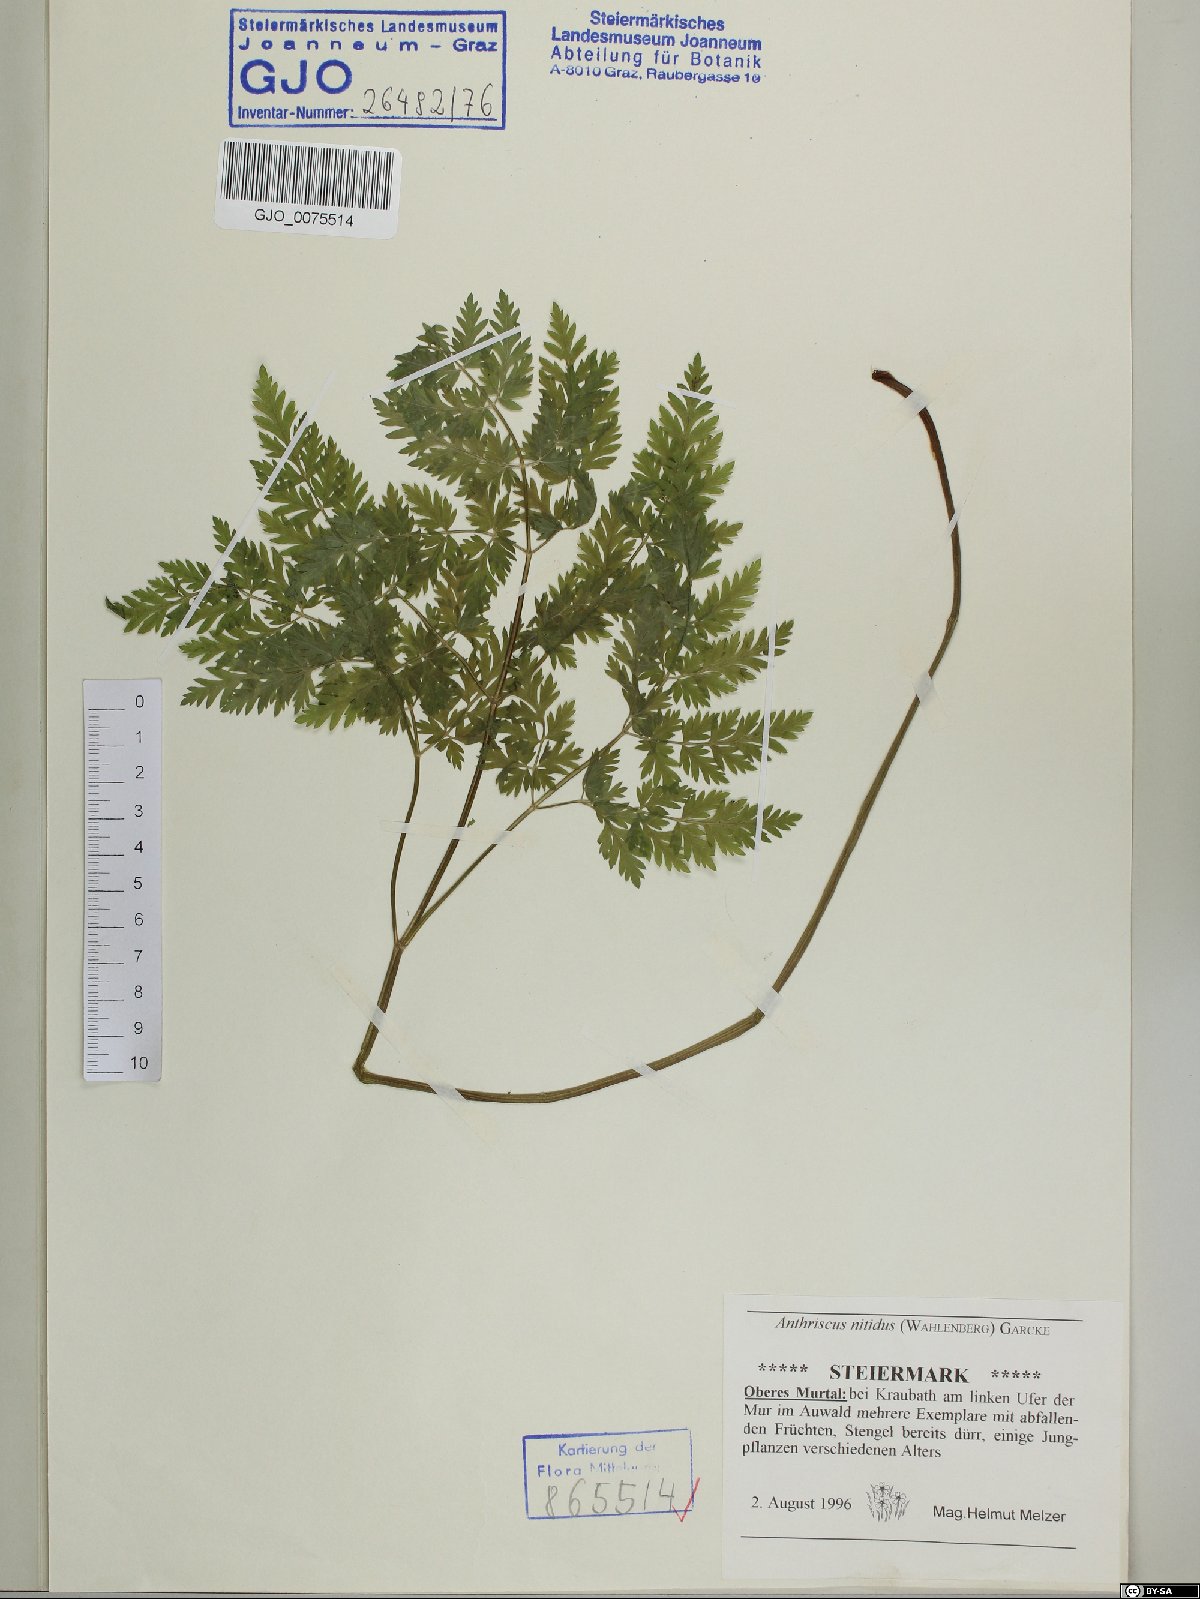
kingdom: Plantae
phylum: Tracheophyta
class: Magnoliopsida
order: Apiales
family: Apiaceae
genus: Anthriscus
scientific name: Anthriscus nitida
